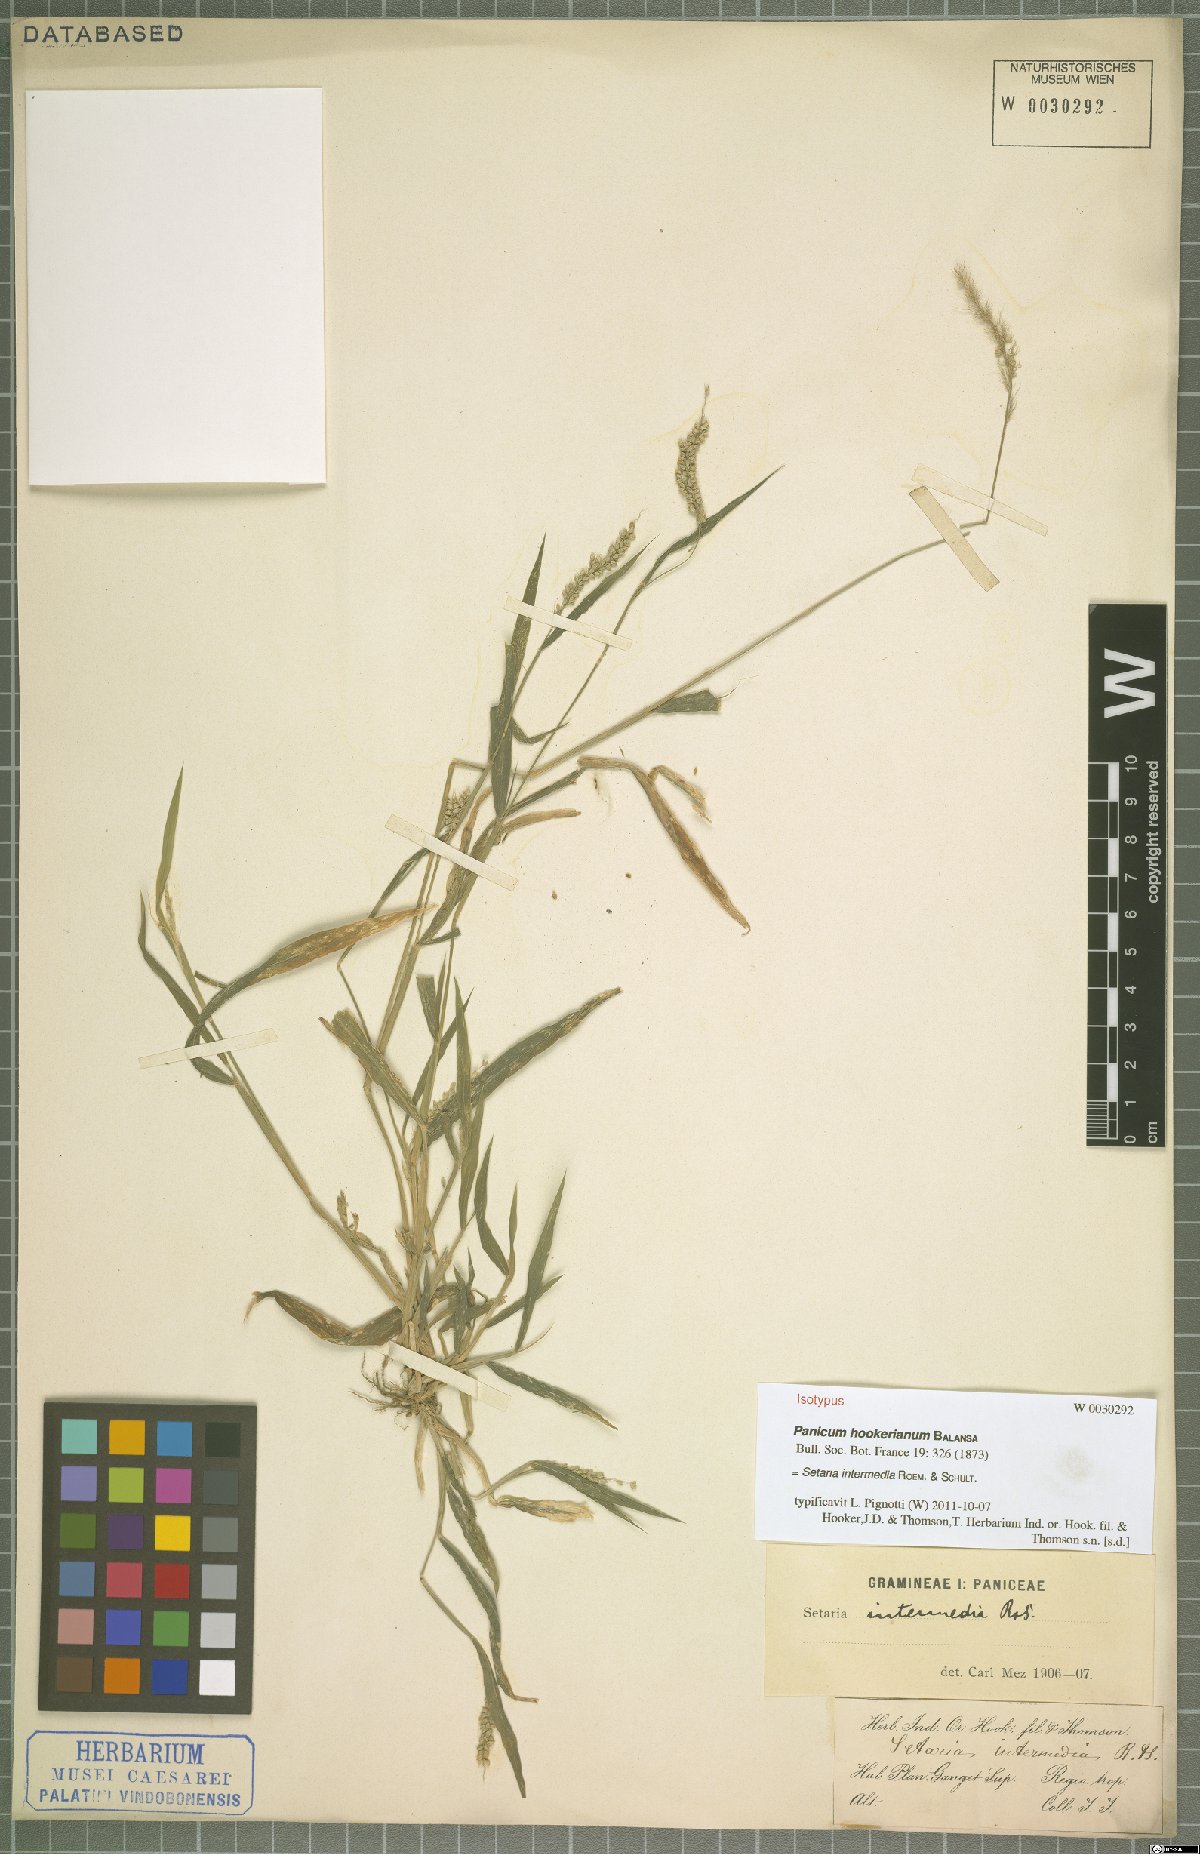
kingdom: Plantae
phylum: Tracheophyta
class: Liliopsida
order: Poales
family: Poaceae
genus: Setaria
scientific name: Setaria intermedia
